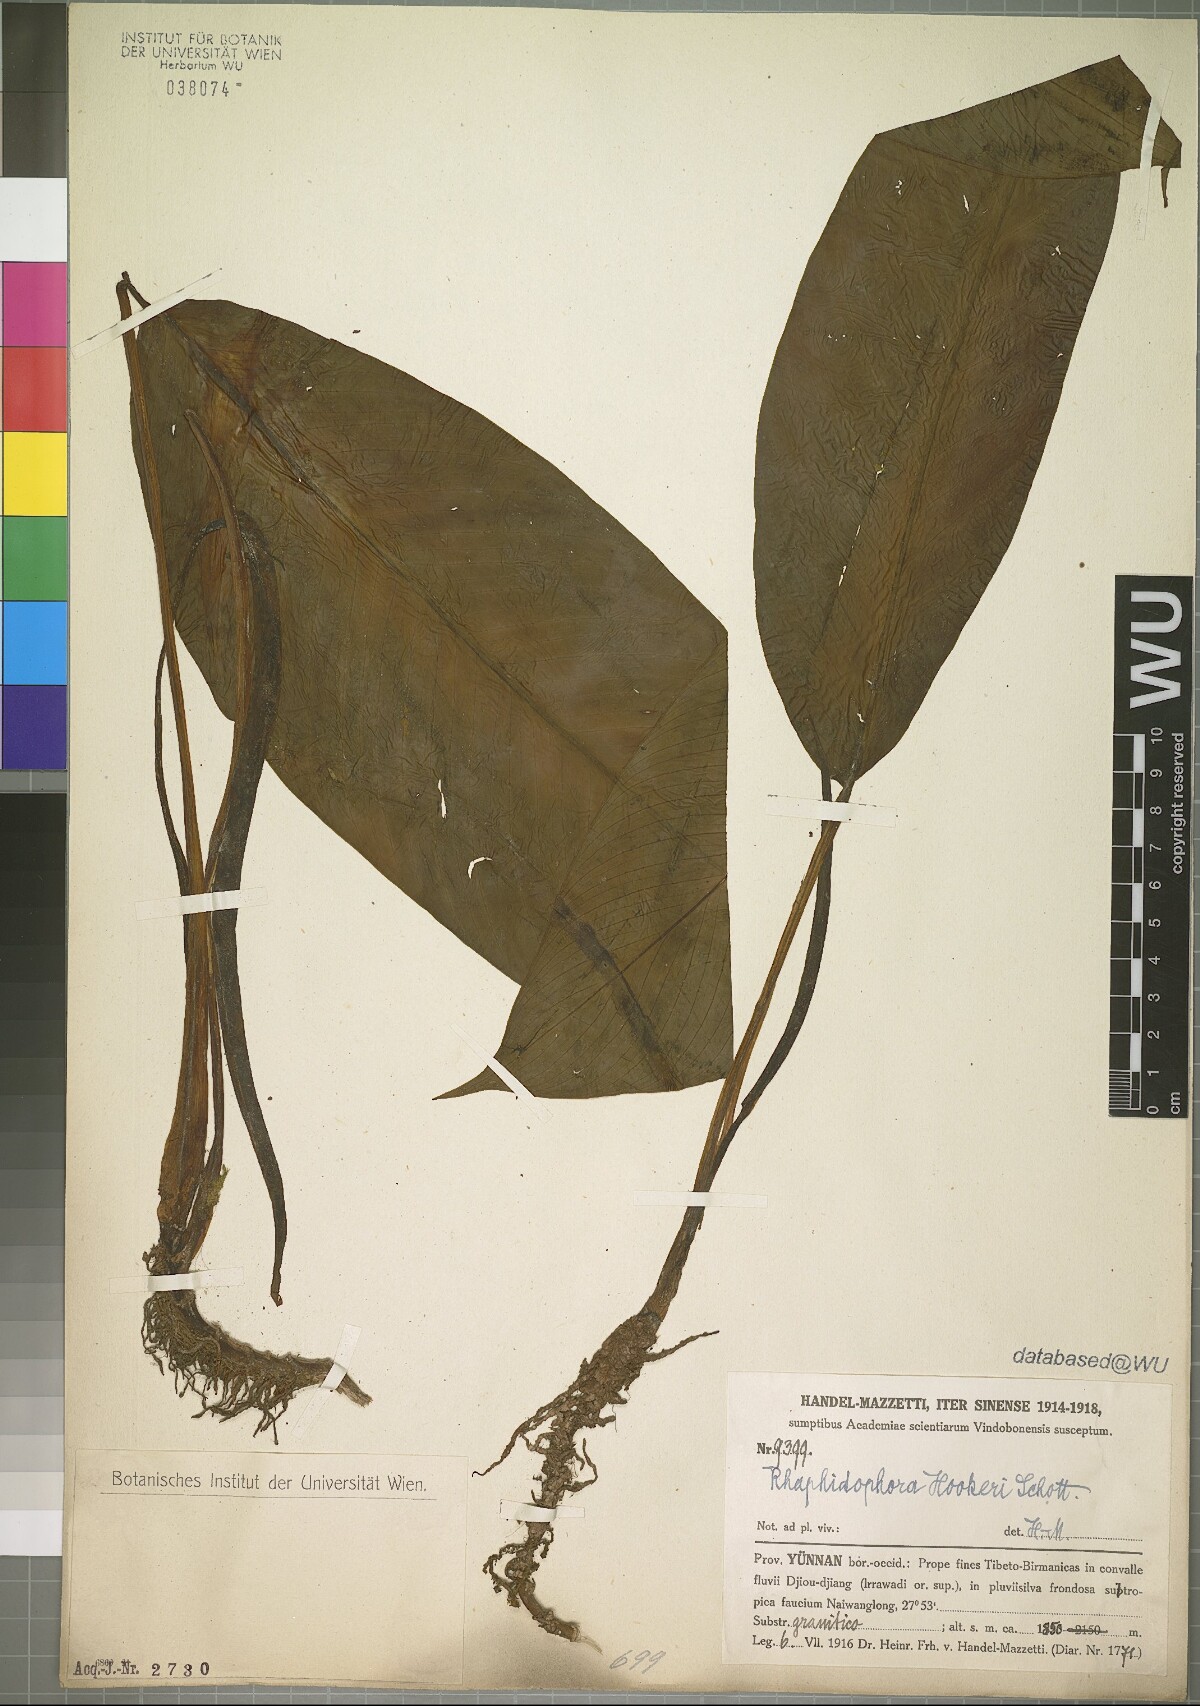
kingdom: Plantae
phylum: Tracheophyta
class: Liliopsida
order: Alismatales
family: Araceae
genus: Rhaphidophora
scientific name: Rhaphidophora hookeri
